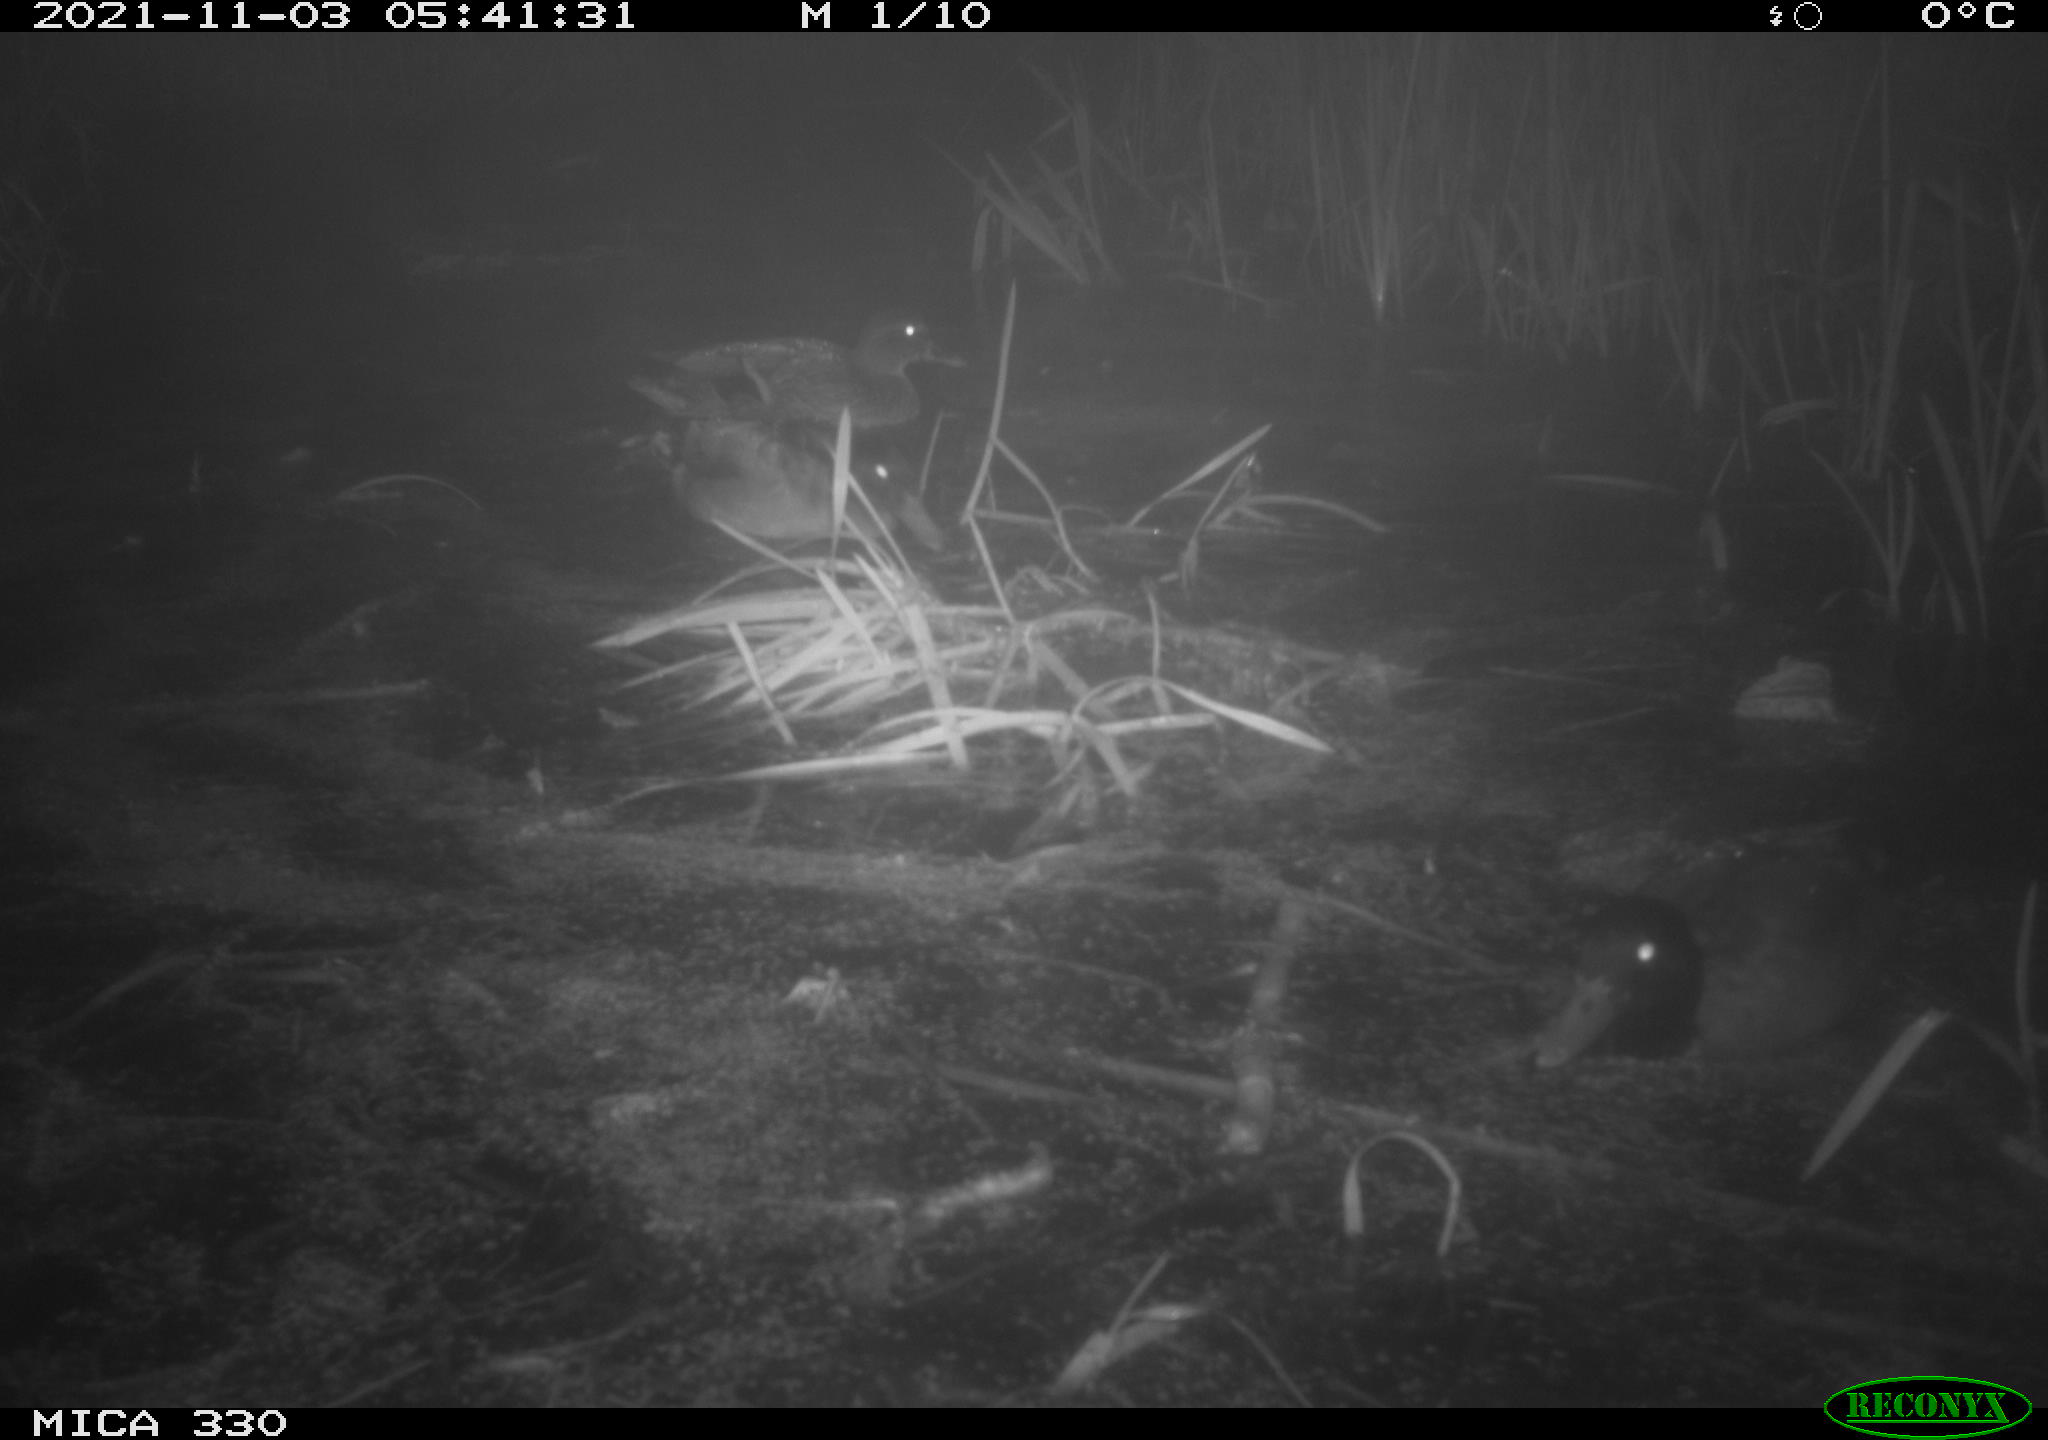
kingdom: Animalia
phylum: Chordata
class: Aves
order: Anseriformes
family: Anatidae
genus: Anas
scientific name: Anas platyrhynchos
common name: Mallard
